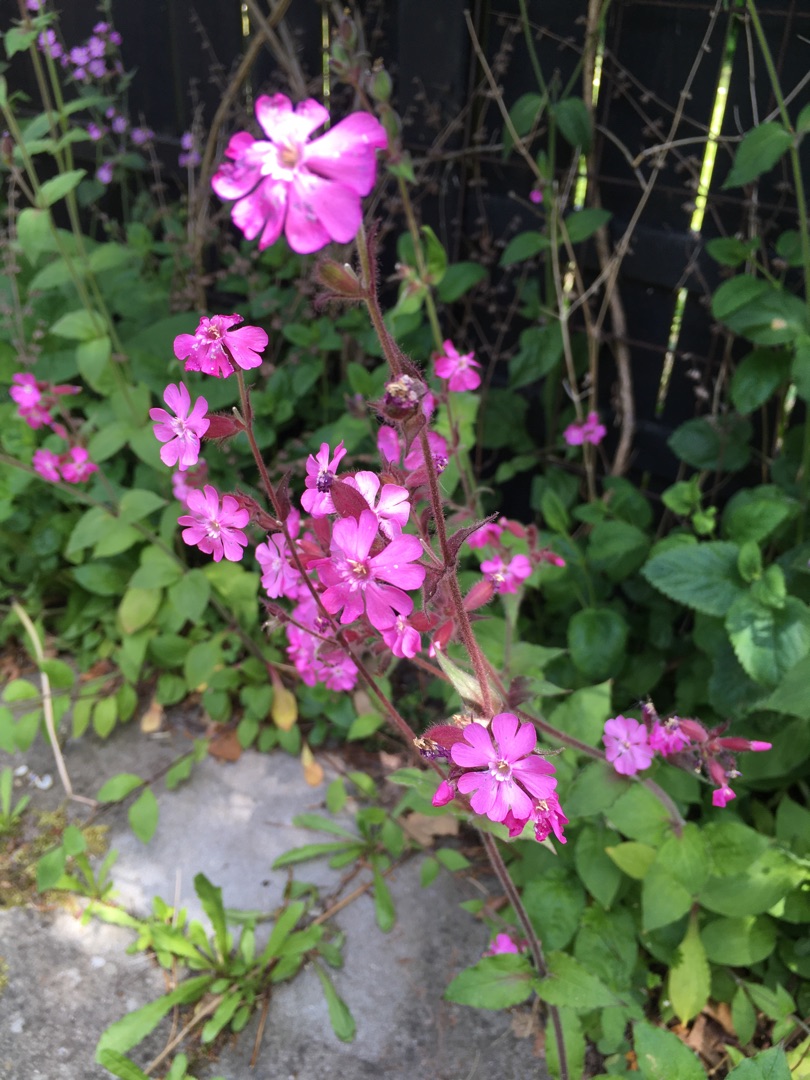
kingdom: Plantae
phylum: Tracheophyta
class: Magnoliopsida
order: Caryophyllales
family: Caryophyllaceae
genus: Silene
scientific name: Silene dioica
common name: Dagpragtstjerne
